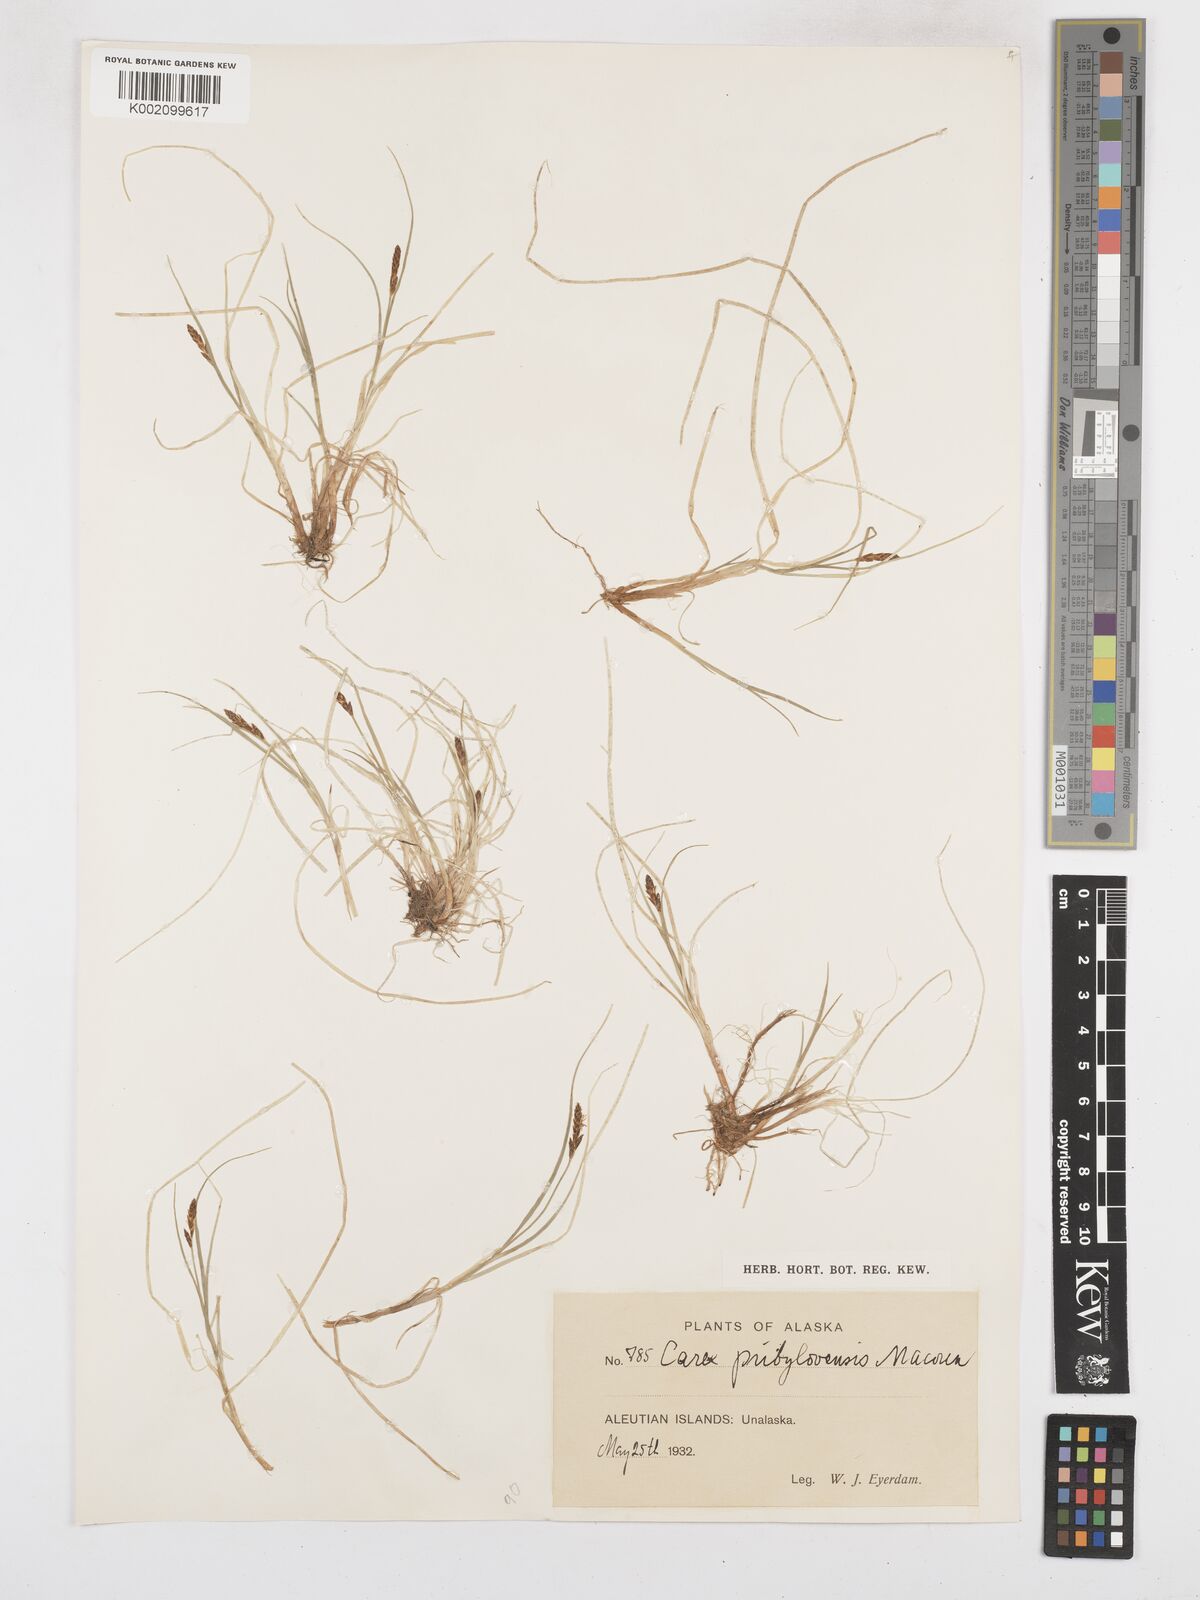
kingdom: Plantae
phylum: Tracheophyta
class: Liliopsida
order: Poales
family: Cyperaceae
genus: Carex
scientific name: Carex glareosa
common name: Clustered sedge
